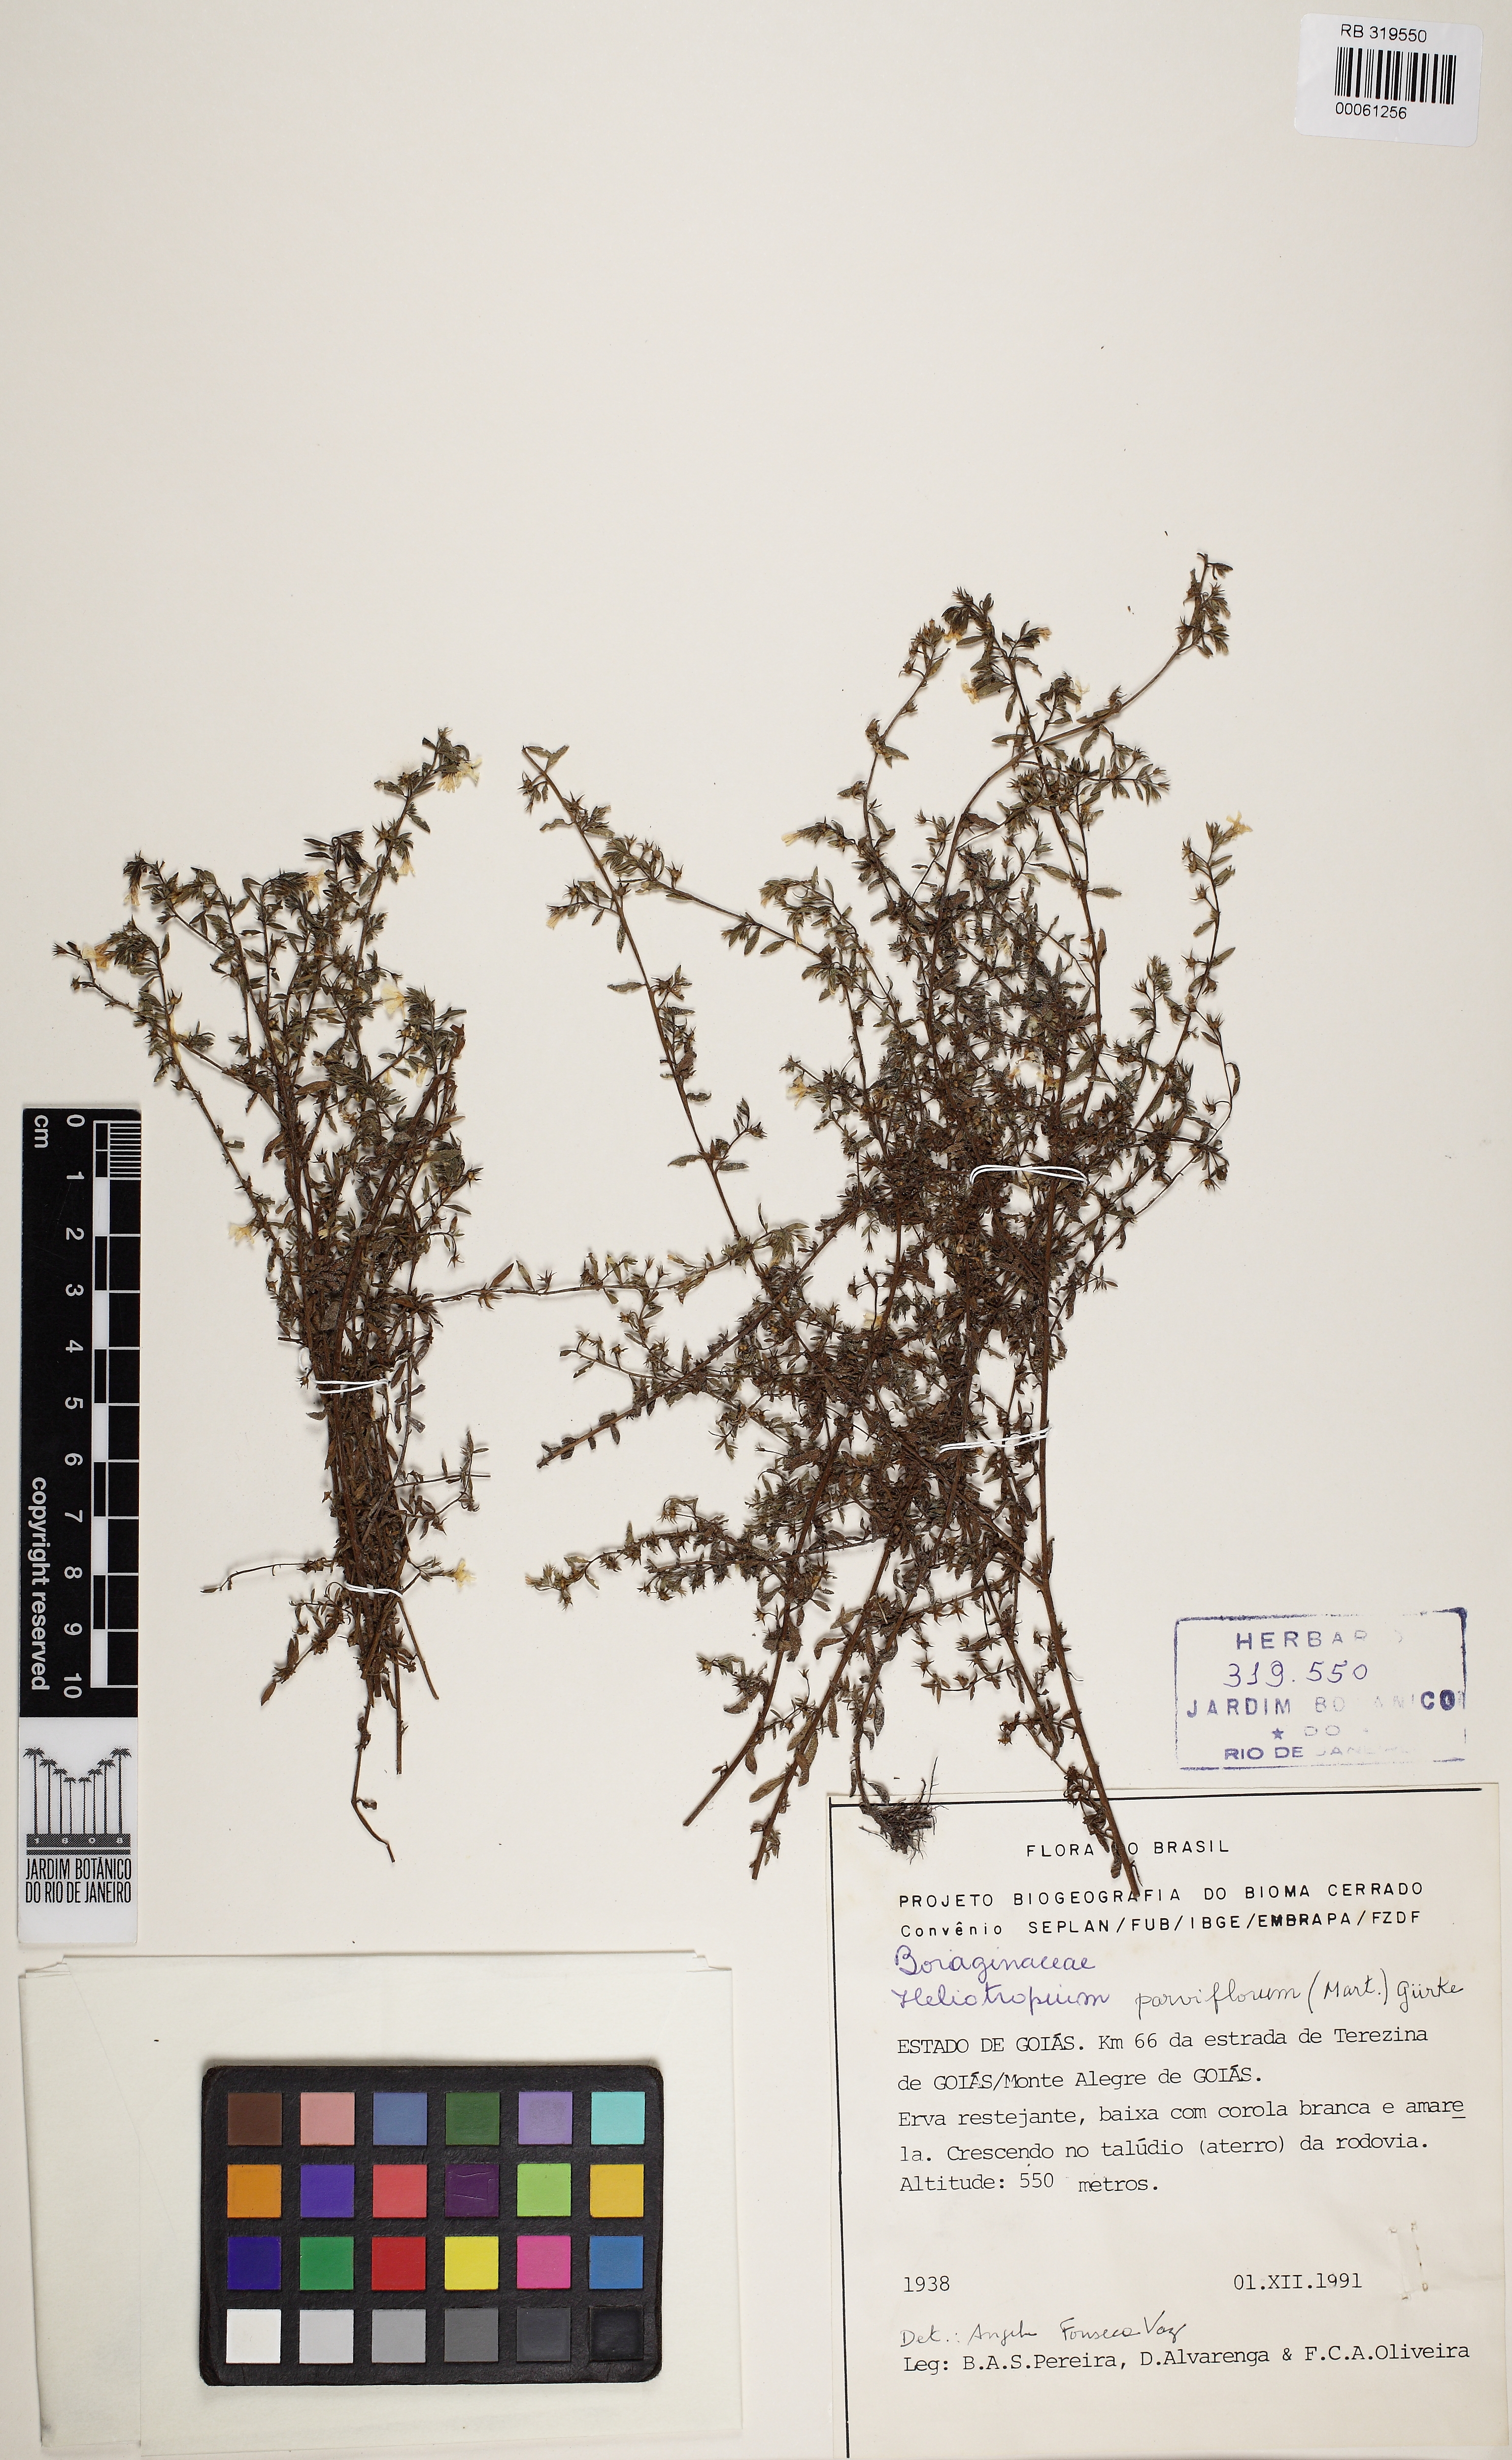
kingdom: Plantae
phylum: Tracheophyta
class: Magnoliopsida
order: Boraginales
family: Heliotropiaceae
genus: Euploca
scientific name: Euploca antillana
